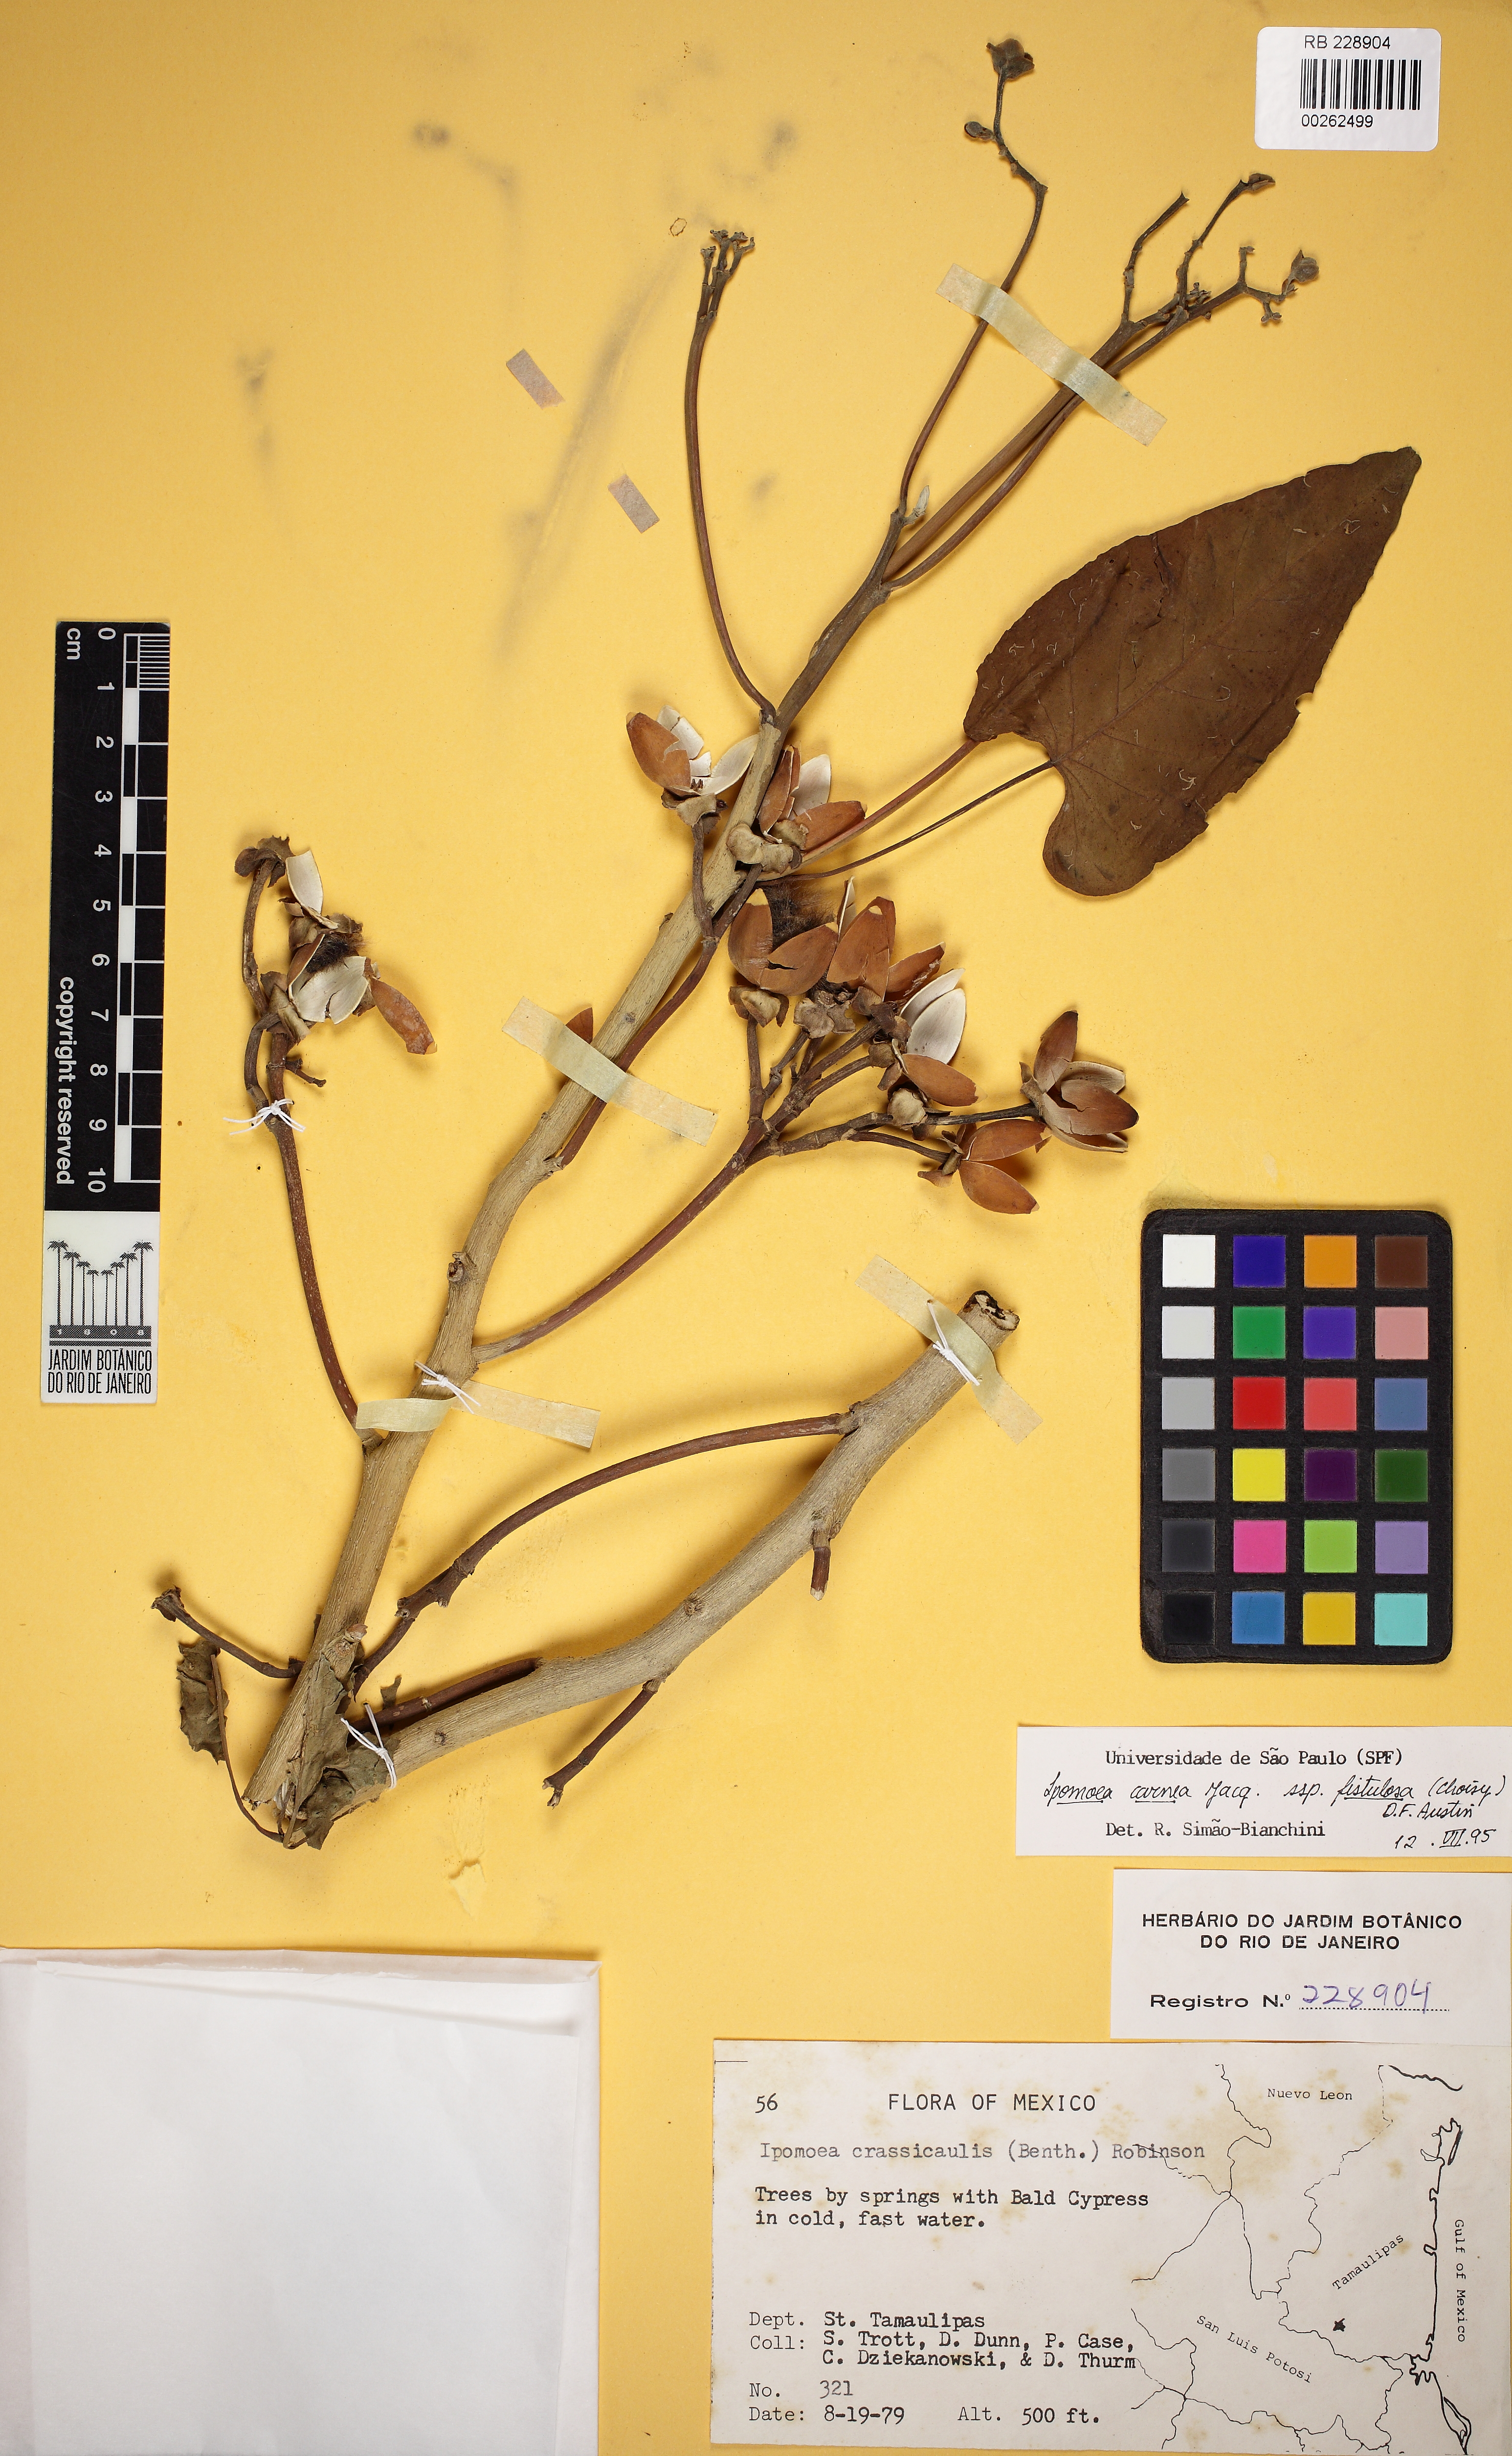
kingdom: Plantae
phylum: Tracheophyta
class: Magnoliopsida
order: Solanales
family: Convolvulaceae
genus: Ipomoea
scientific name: Ipomoea carnea
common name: Morning-glory
